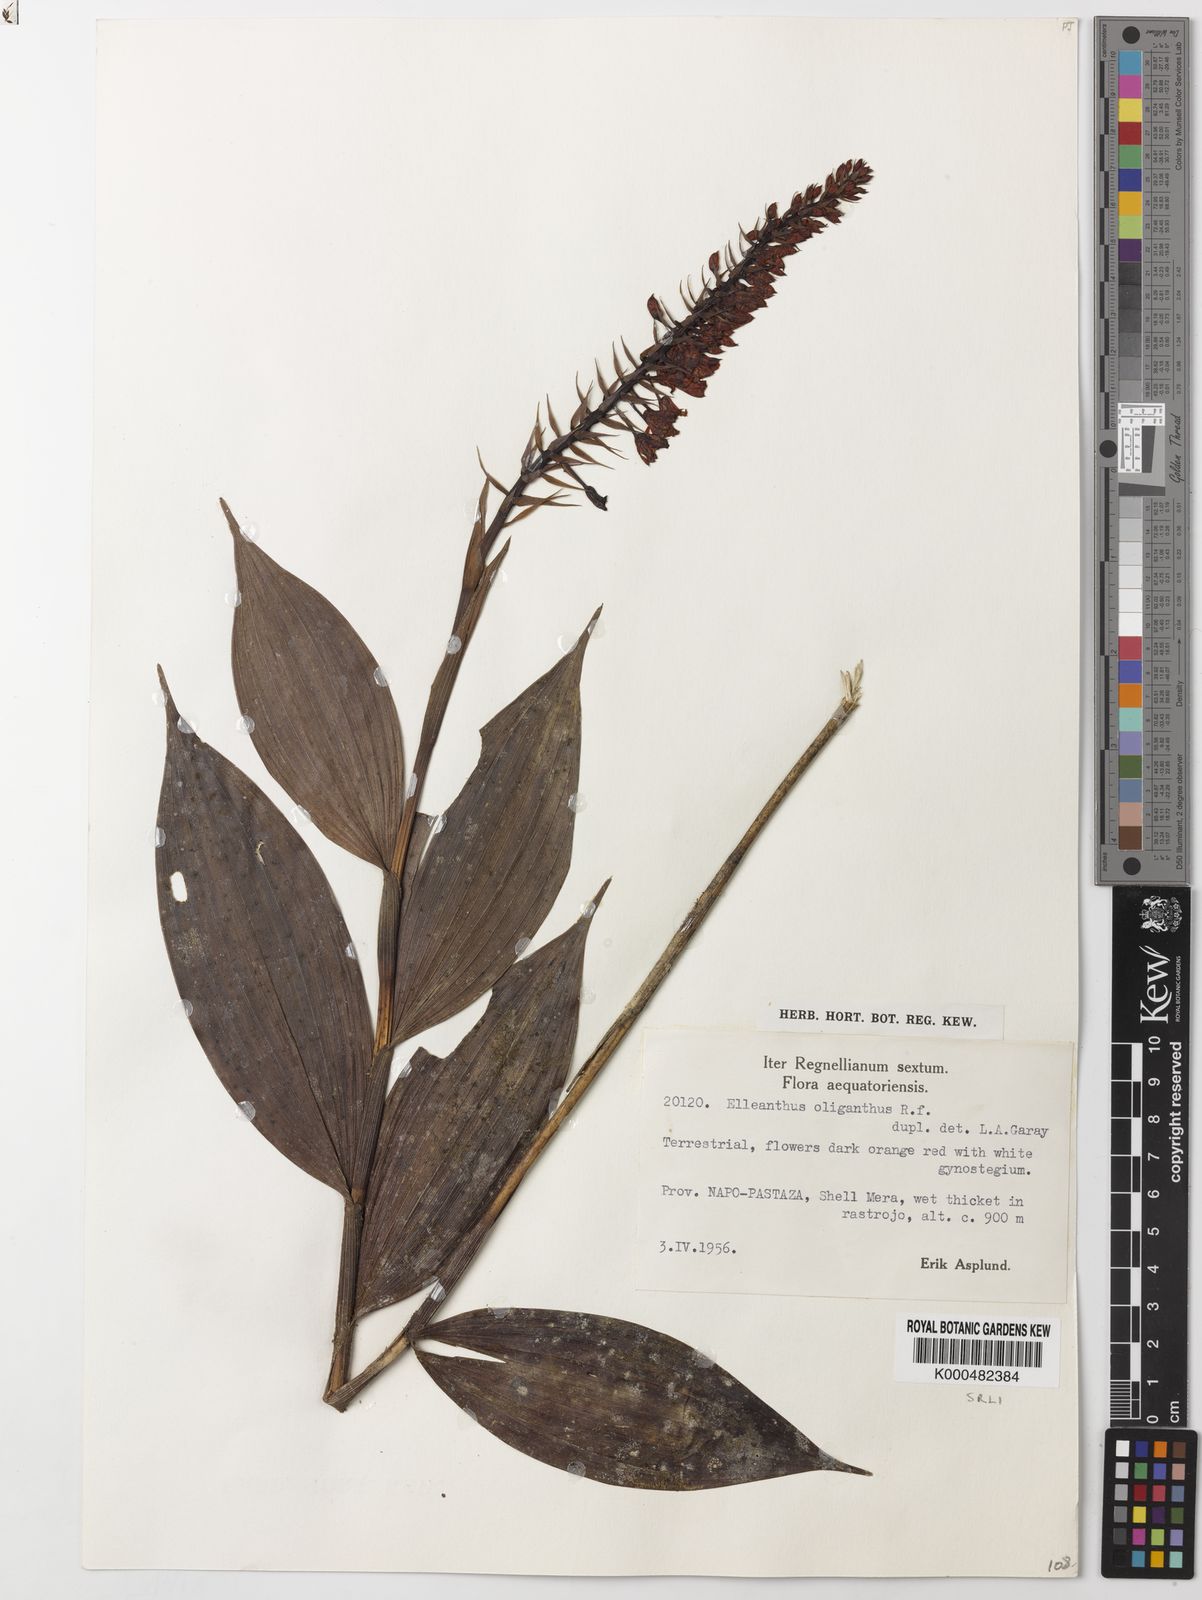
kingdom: Plantae
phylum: Tracheophyta
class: Liliopsida
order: Asparagales
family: Orchidaceae
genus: Elleanthus
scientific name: Elleanthus oliganthus
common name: Sparse blooming elleanthus
